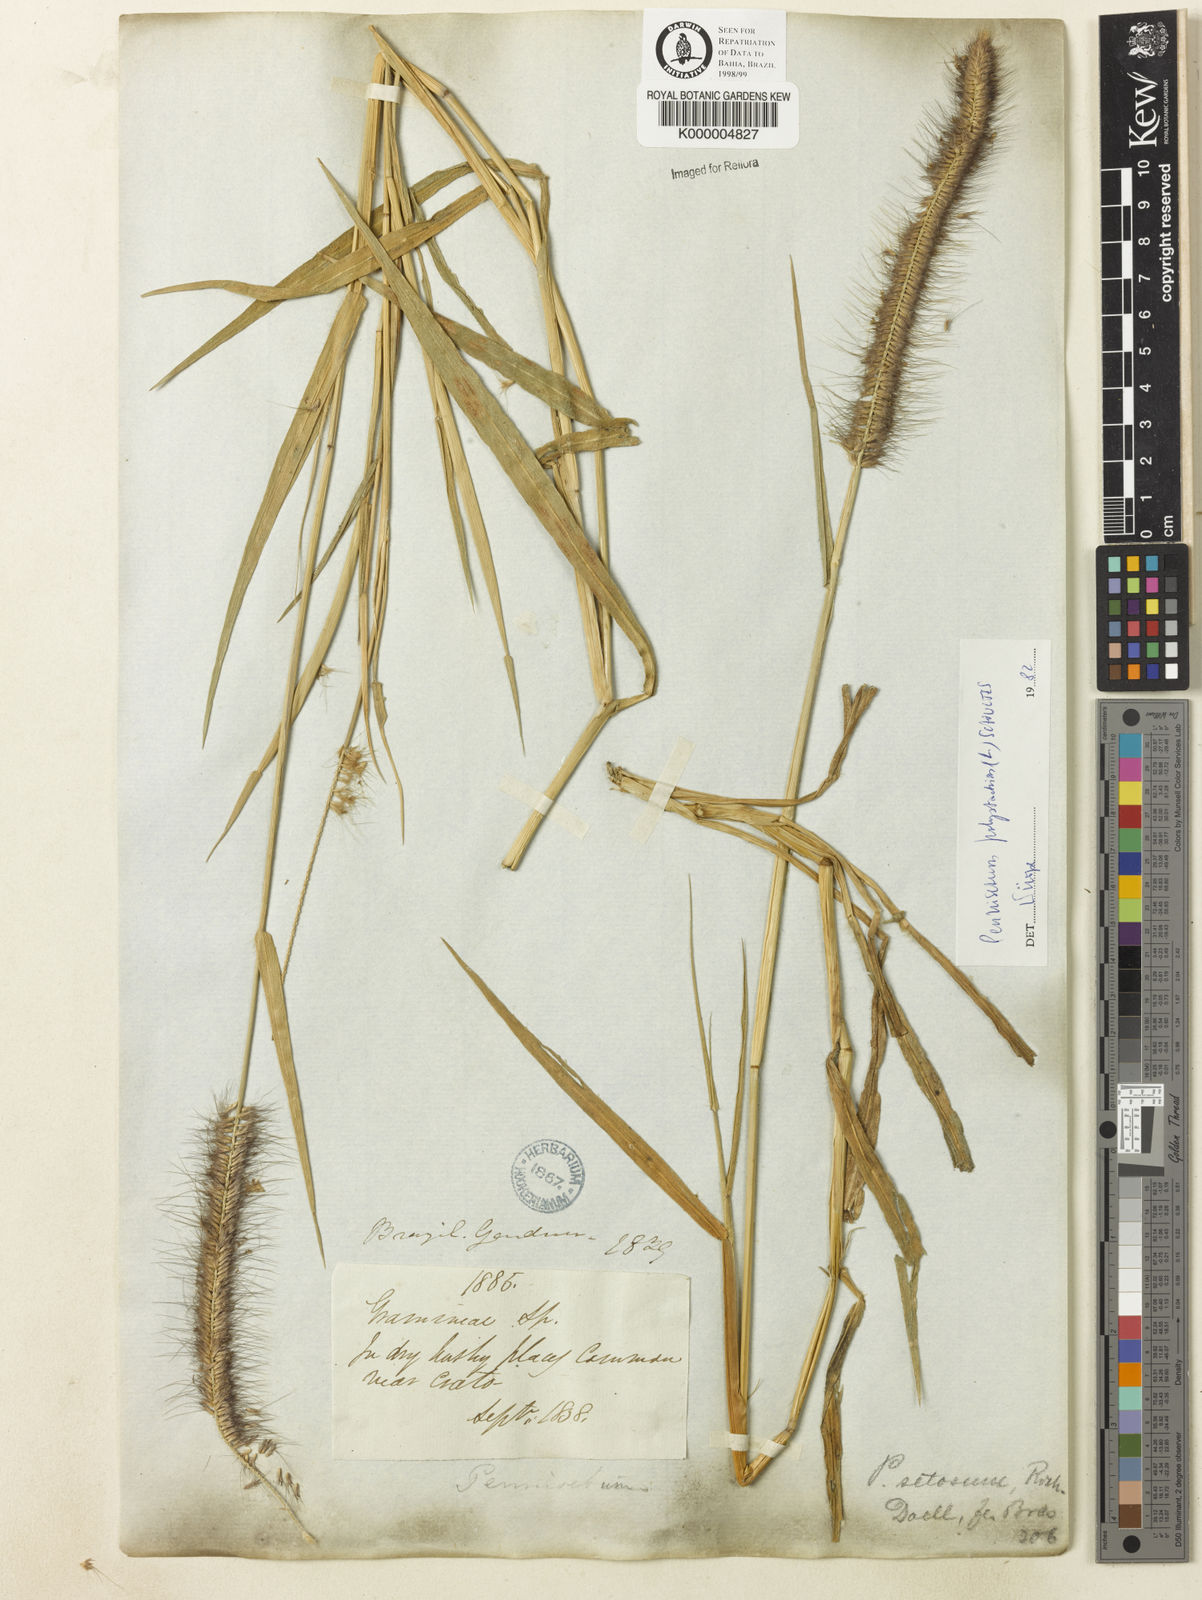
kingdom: Plantae
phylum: Tracheophyta
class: Liliopsida
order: Poales
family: Poaceae
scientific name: Poaceae
